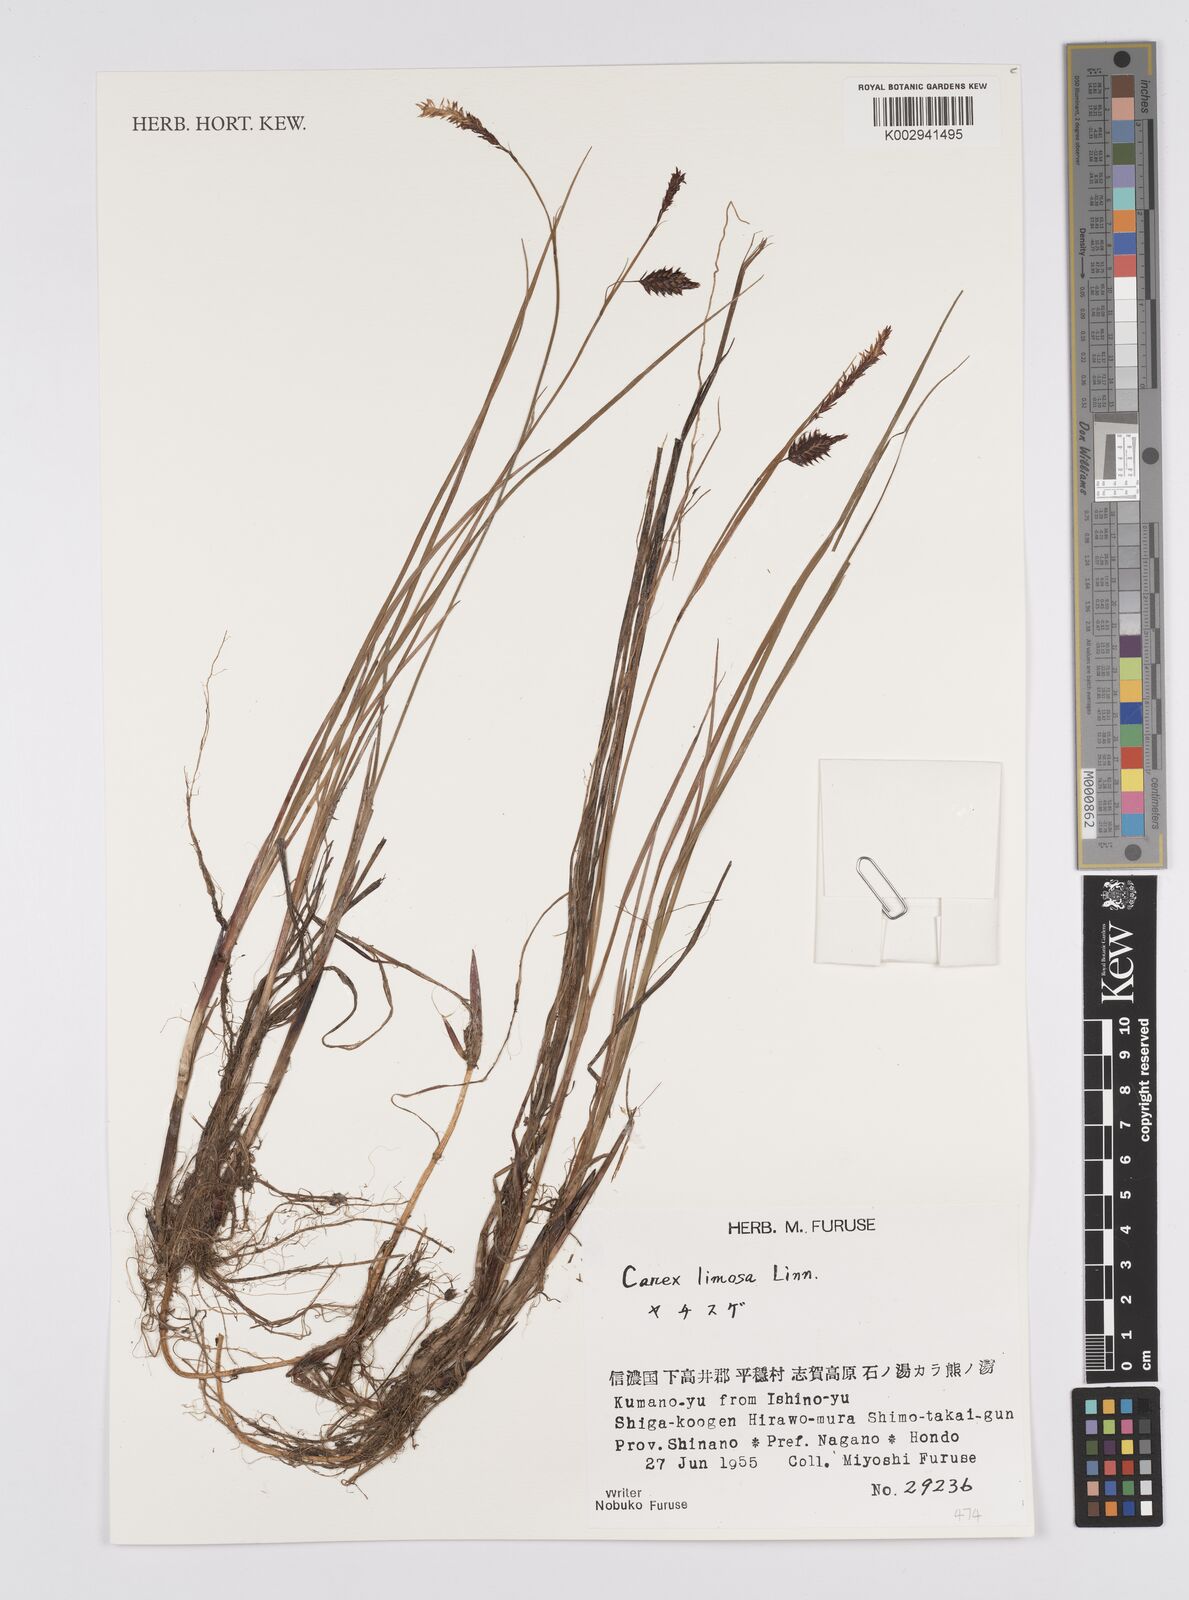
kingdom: Plantae
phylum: Tracheophyta
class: Liliopsida
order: Poales
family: Cyperaceae
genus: Carex
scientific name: Carex limosa
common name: Bog sedge
